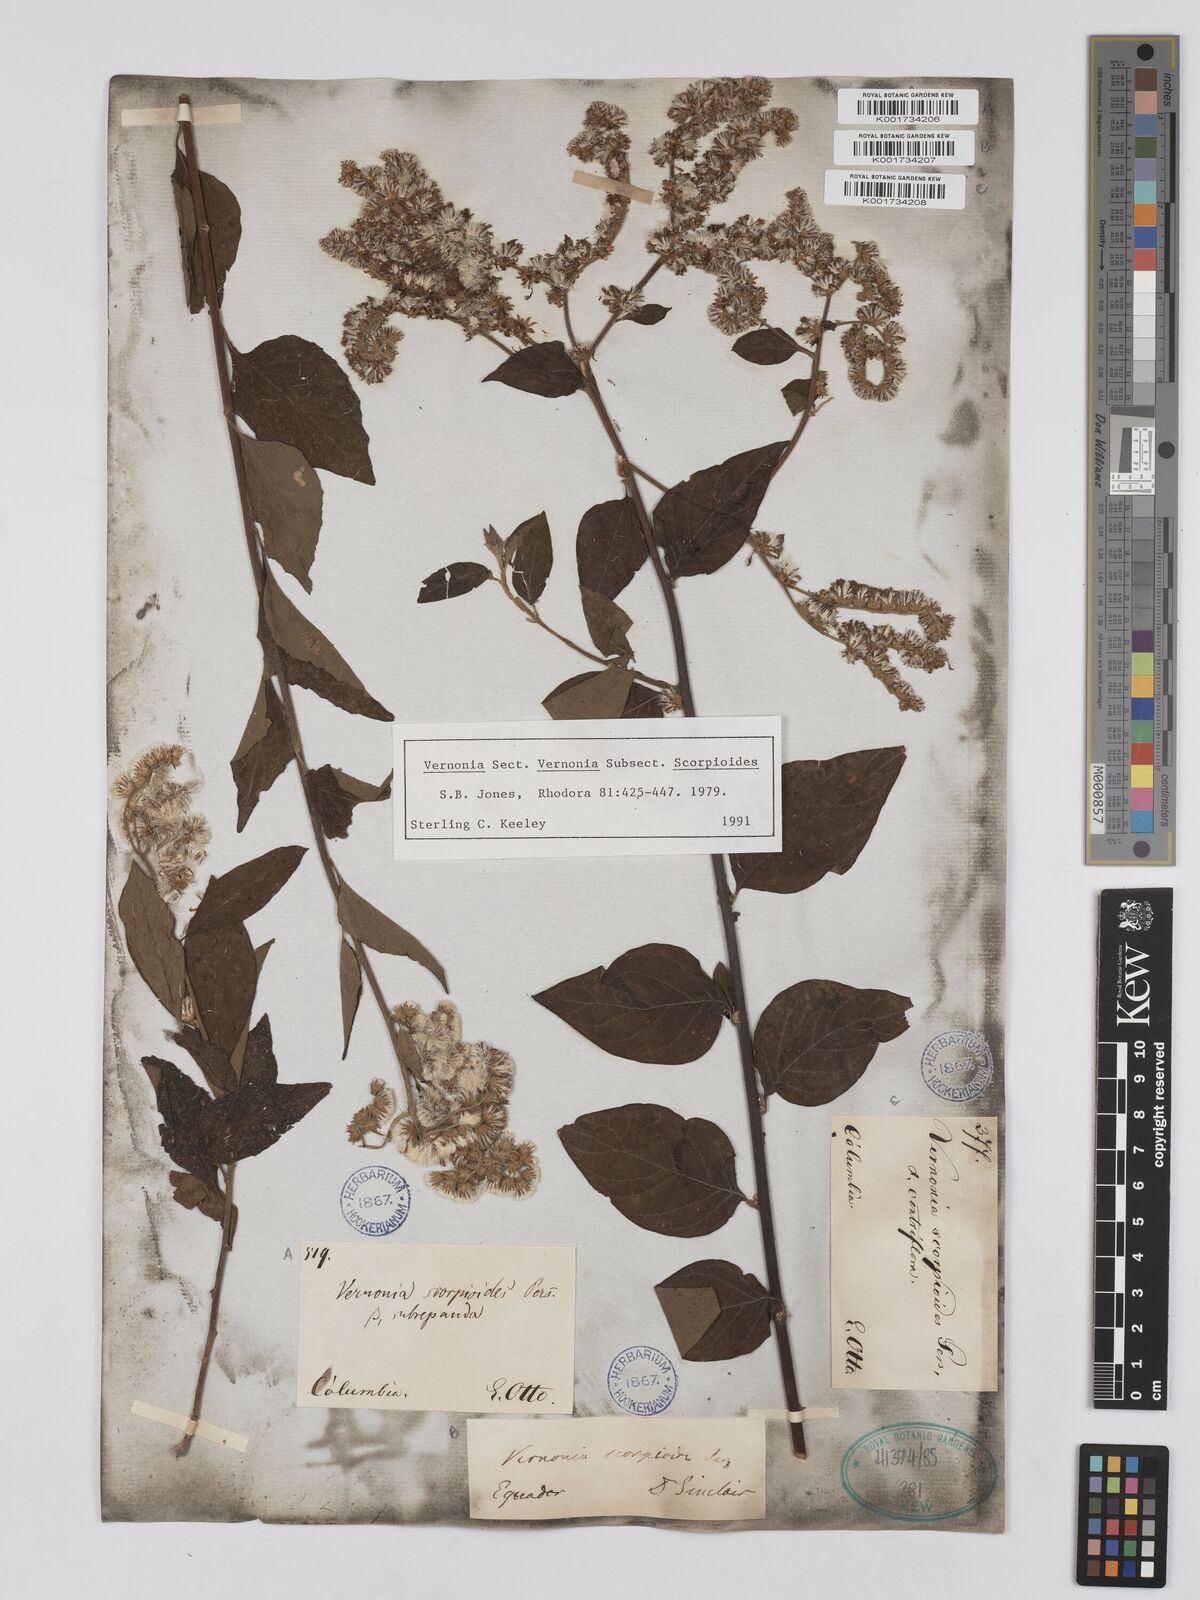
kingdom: Plantae
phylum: Tracheophyta
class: Magnoliopsida
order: Asterales
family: Asteraceae
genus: Cyrtocymura
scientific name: Cyrtocymura scorpioides
